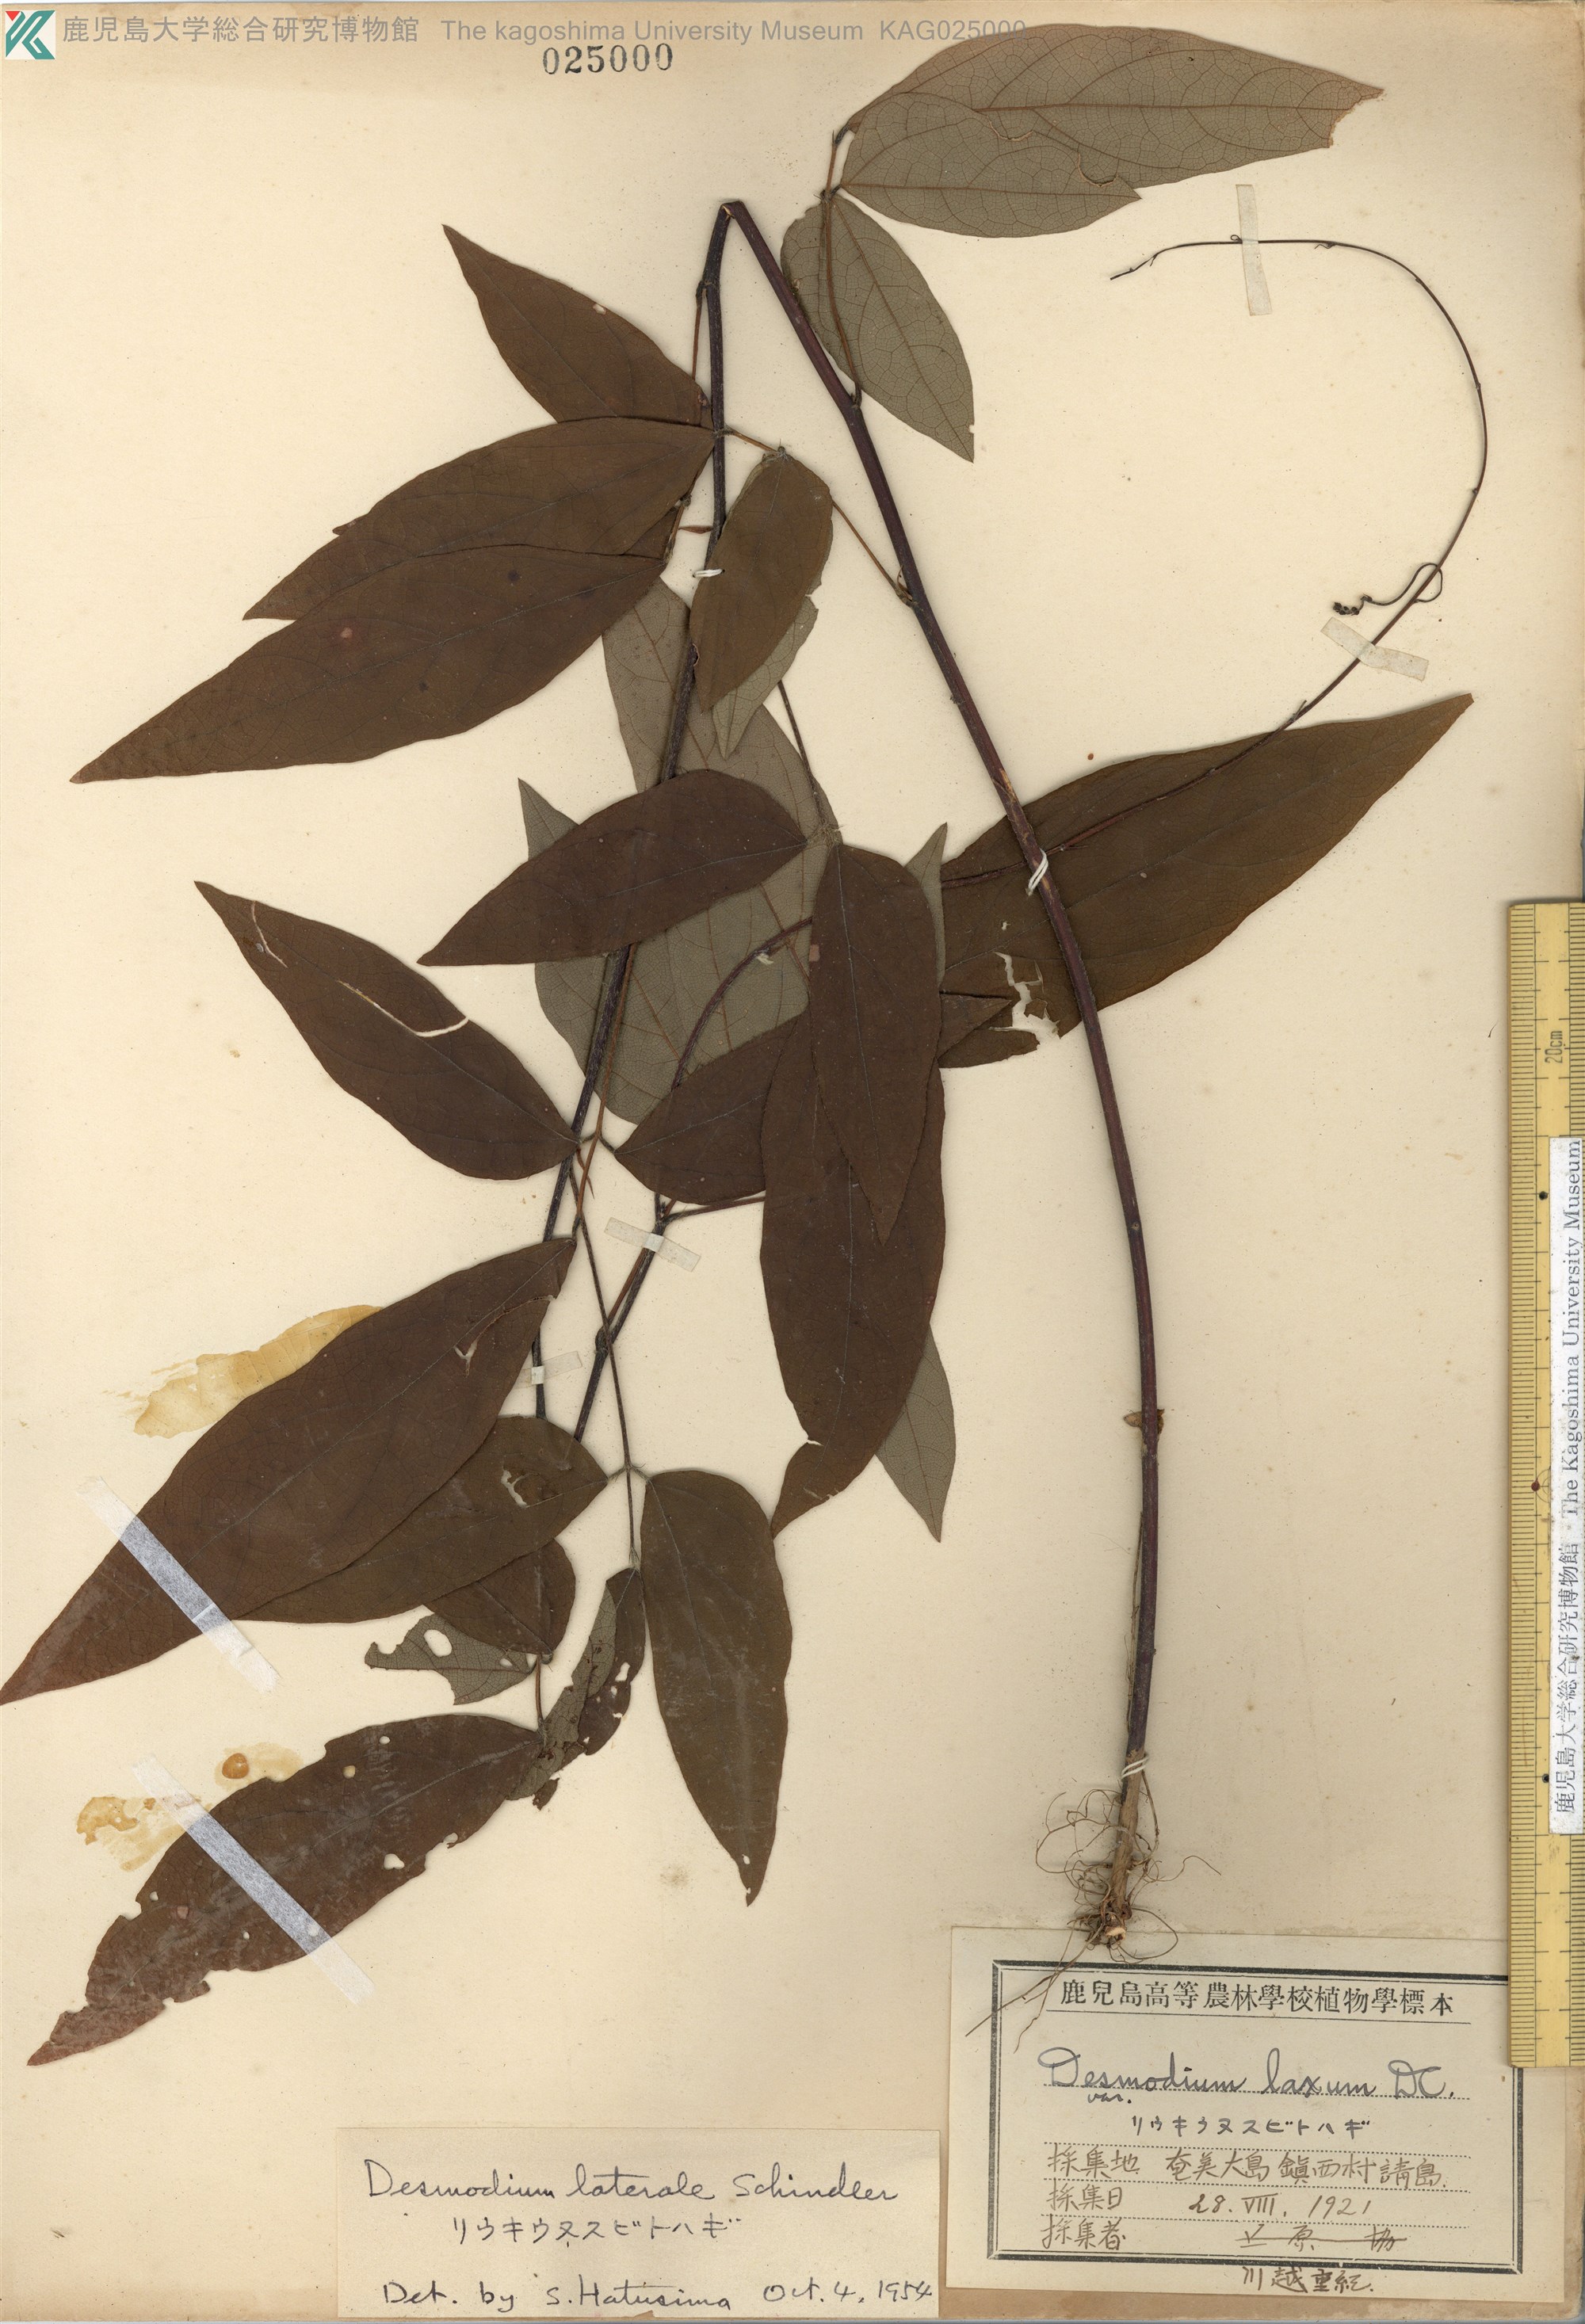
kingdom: Plantae
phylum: Tracheophyta
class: Magnoliopsida
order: Fabales
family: Fabaceae
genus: Hylodesmum
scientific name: Hylodesmum laterale
